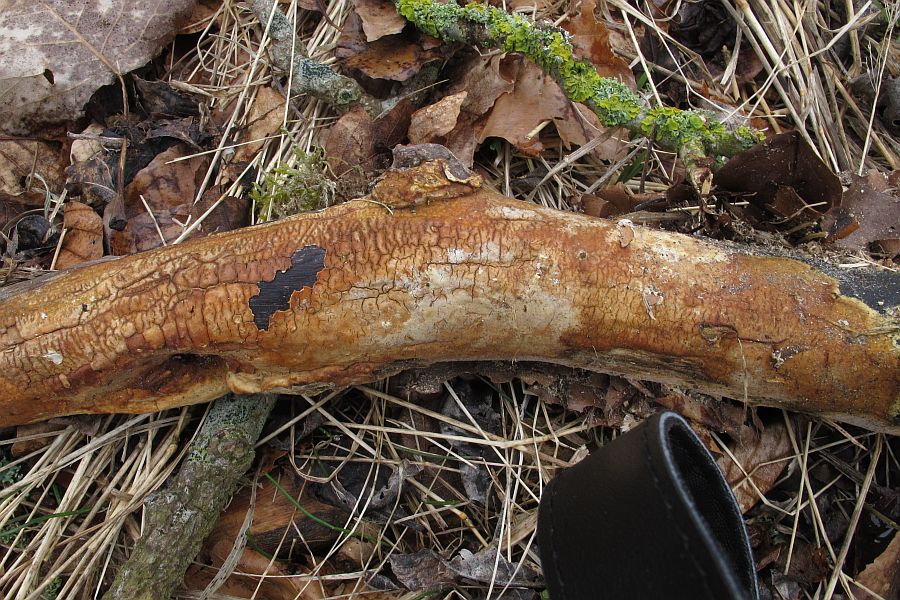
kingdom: Fungi
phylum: Basidiomycota
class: Agaricomycetes
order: Russulales
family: Peniophoraceae
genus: Scytinostroma
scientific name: Scytinostroma hemidichophyticum
